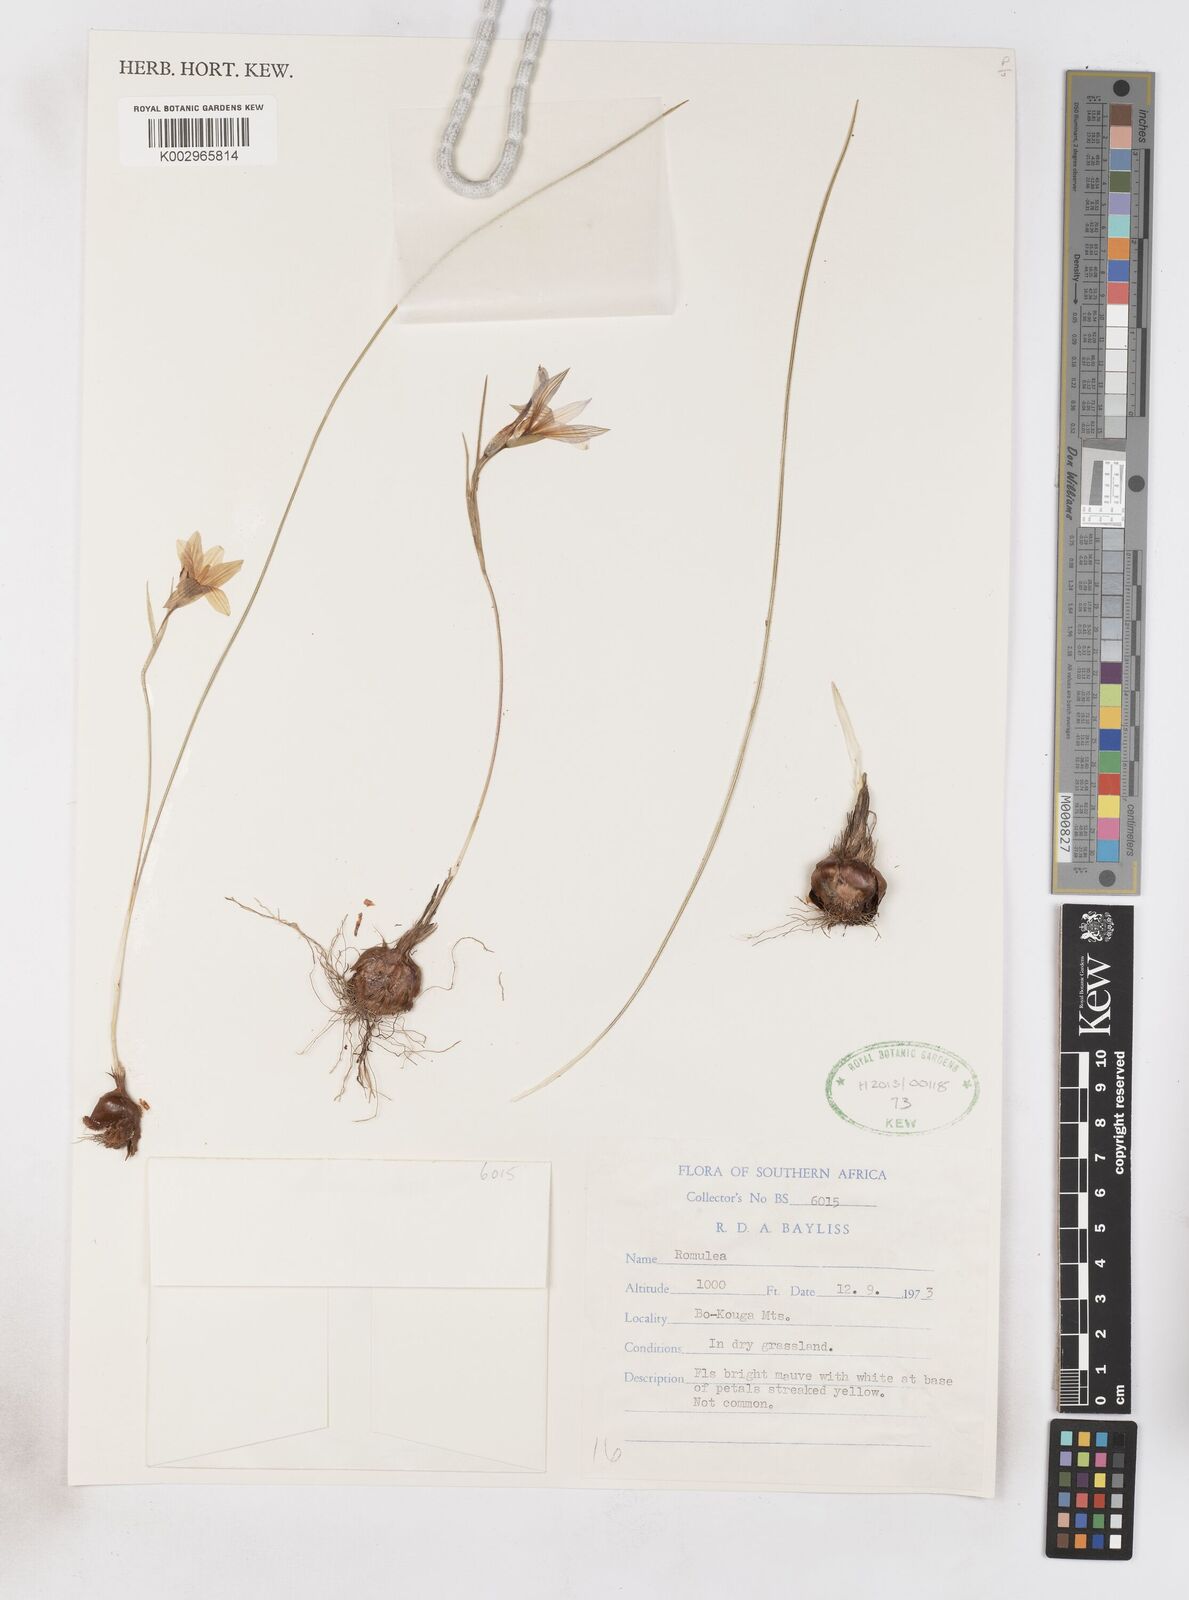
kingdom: Plantae
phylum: Tracheophyta
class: Liliopsida
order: Asparagales
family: Iridaceae
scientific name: Iridaceae
